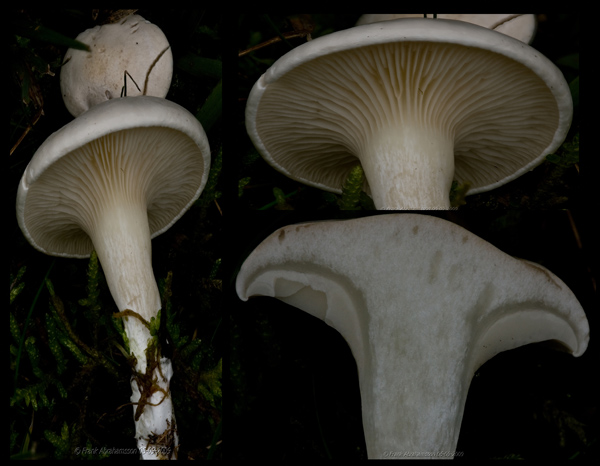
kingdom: Fungi
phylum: Basidiomycota
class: Agaricomycetes
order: Agaricales
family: Entolomataceae
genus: Clitopilus
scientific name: Clitopilus prunulus
